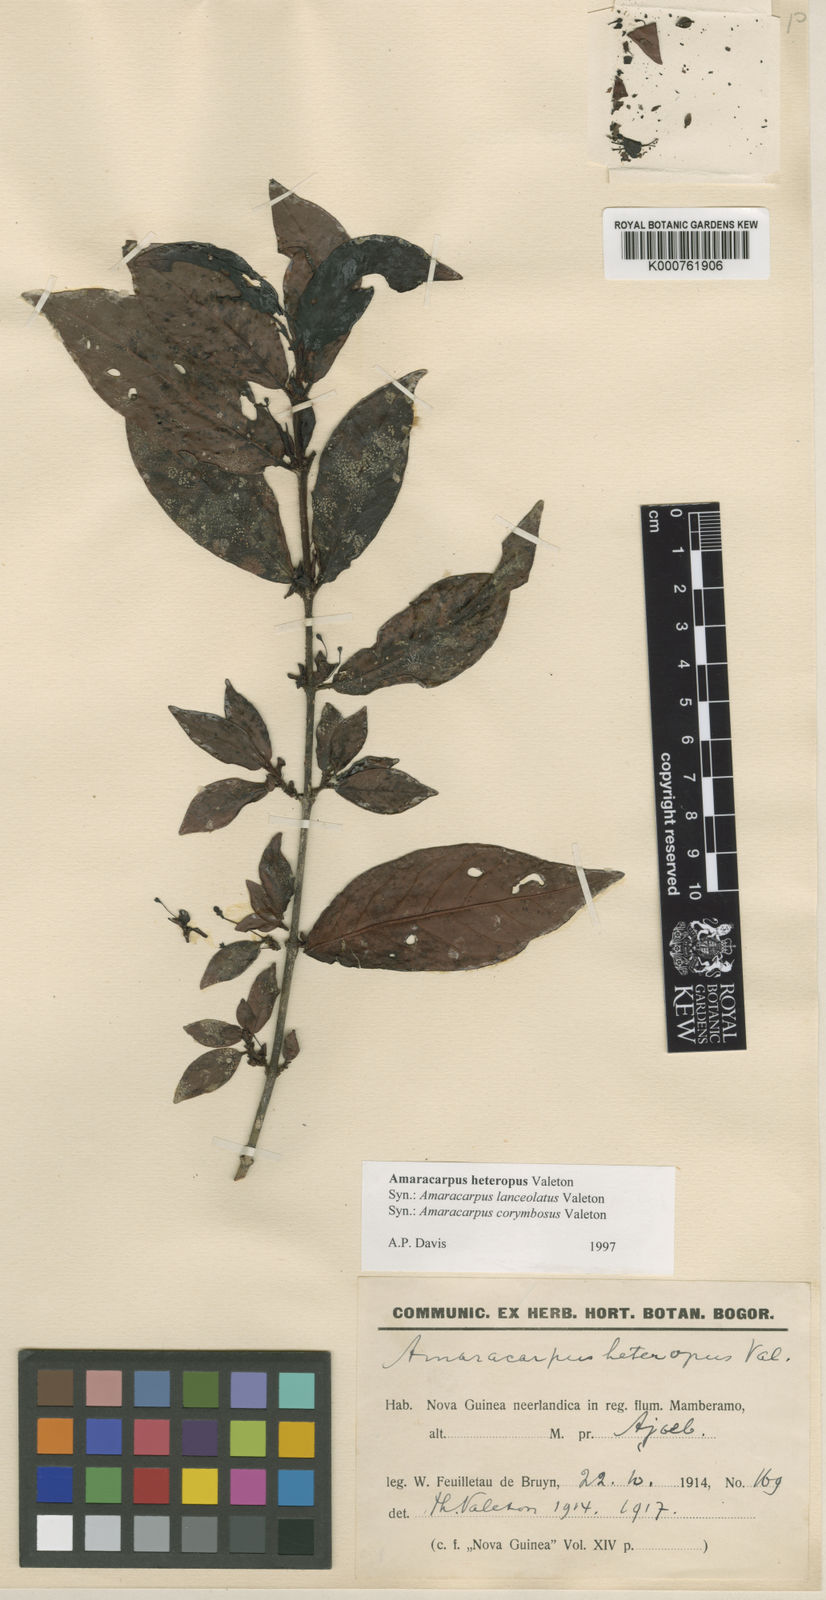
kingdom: Plantae
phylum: Tracheophyta
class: Magnoliopsida
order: Gentianales
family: Rubiaceae
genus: Amaracarpus
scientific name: Amaracarpus nematopodus
